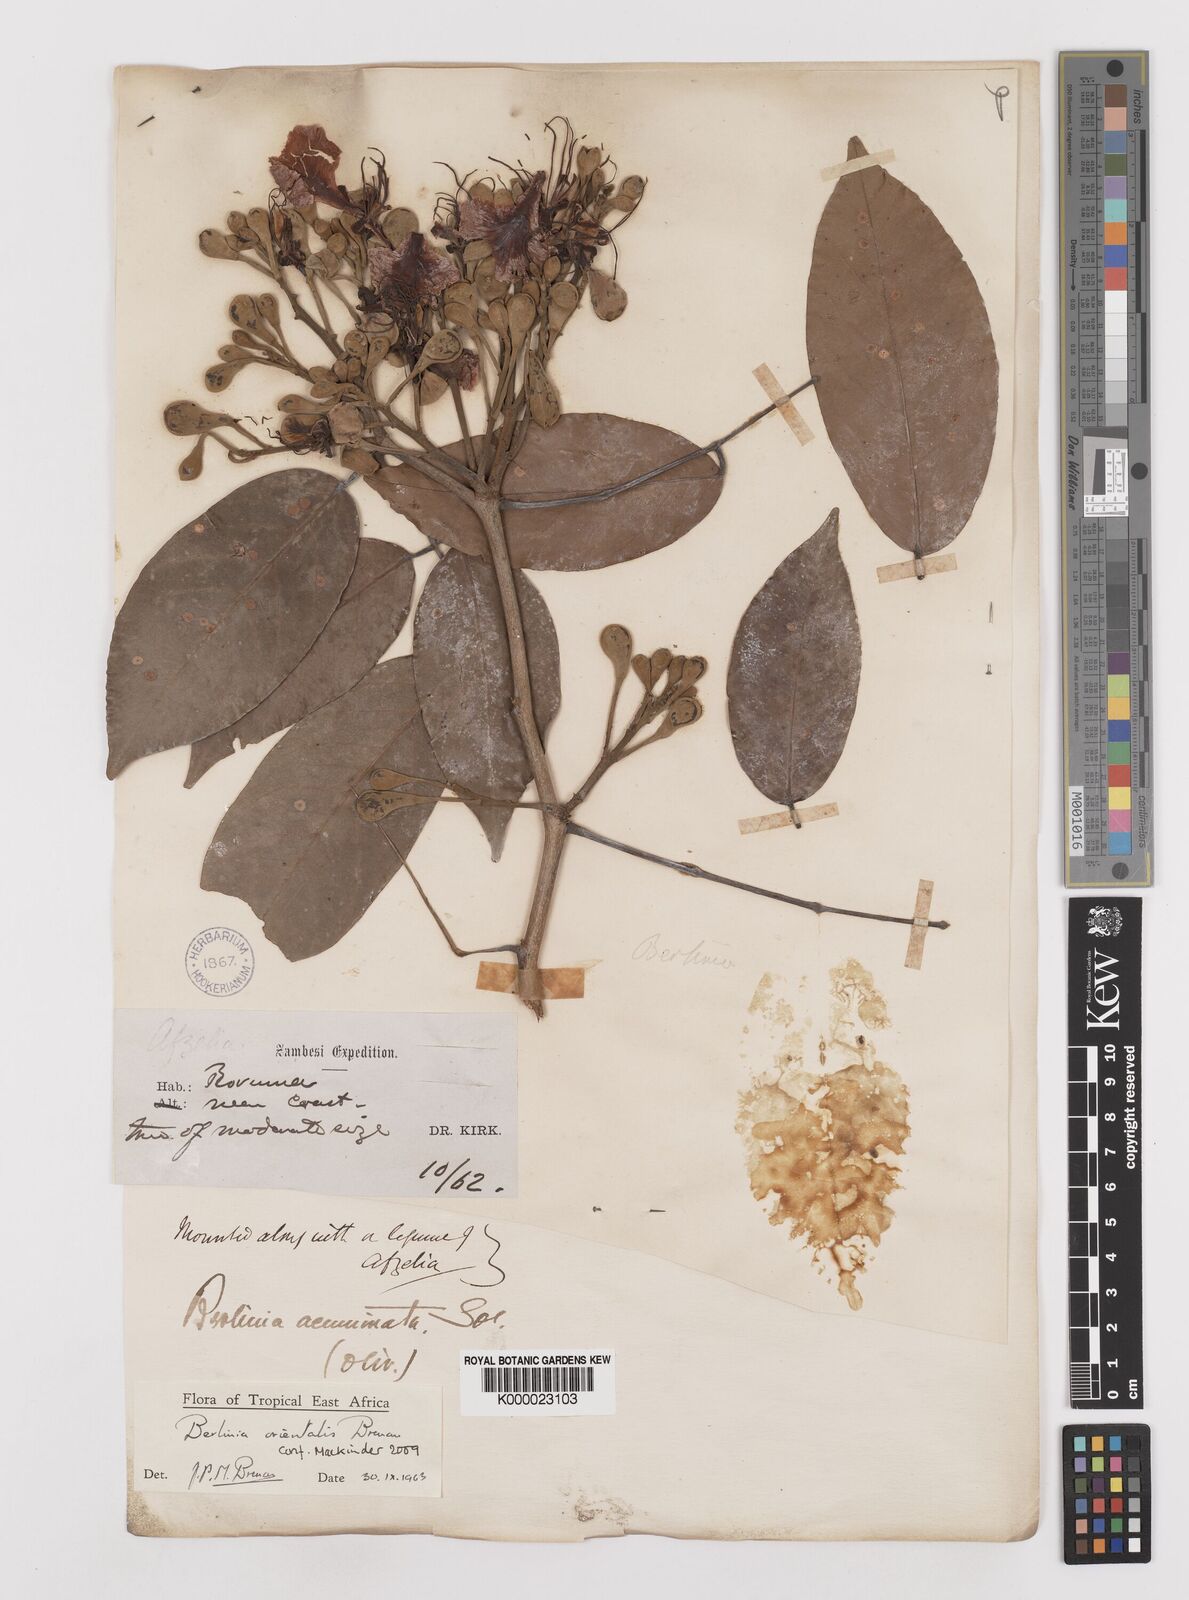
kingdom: Plantae
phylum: Tracheophyta
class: Magnoliopsida
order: Fabales
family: Fabaceae
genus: Berlinia
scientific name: Berlinia orientalis
